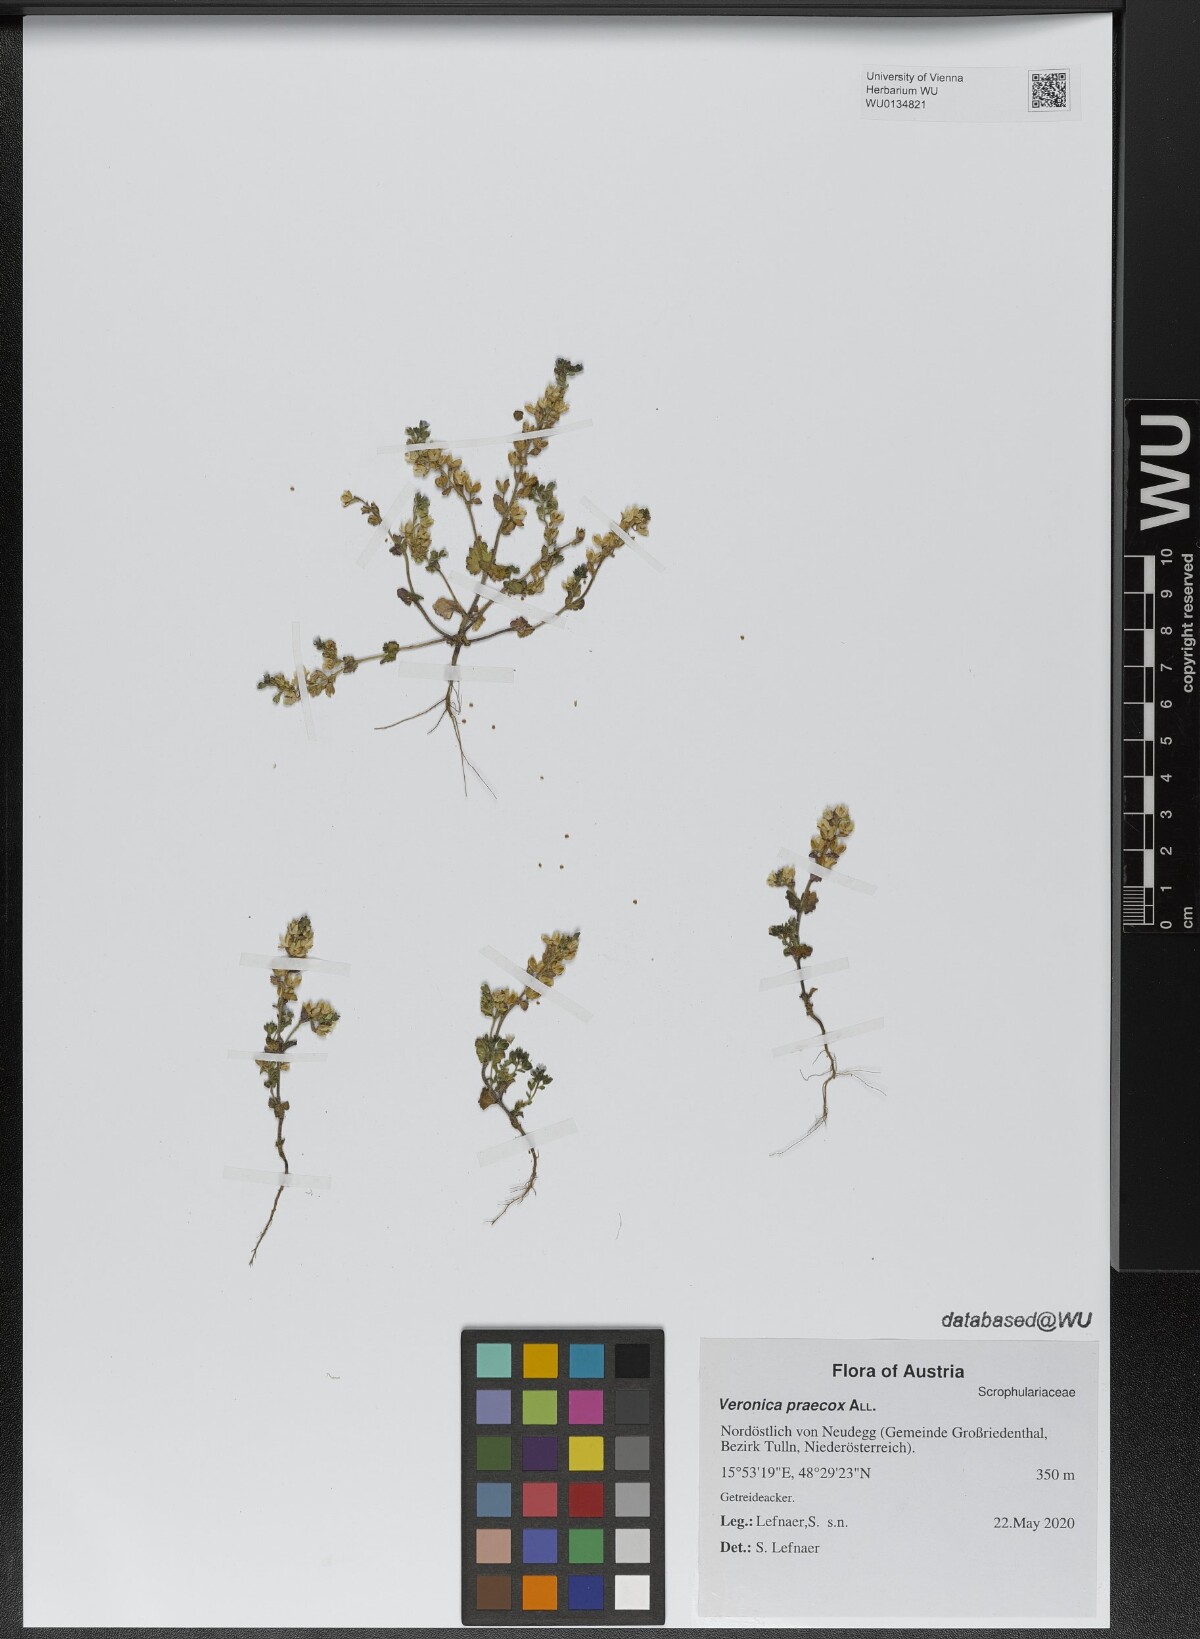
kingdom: Plantae
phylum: Tracheophyta
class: Magnoliopsida
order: Lamiales
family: Plantaginaceae
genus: Veronica
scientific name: Veronica praecox
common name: Breckland speedwell
